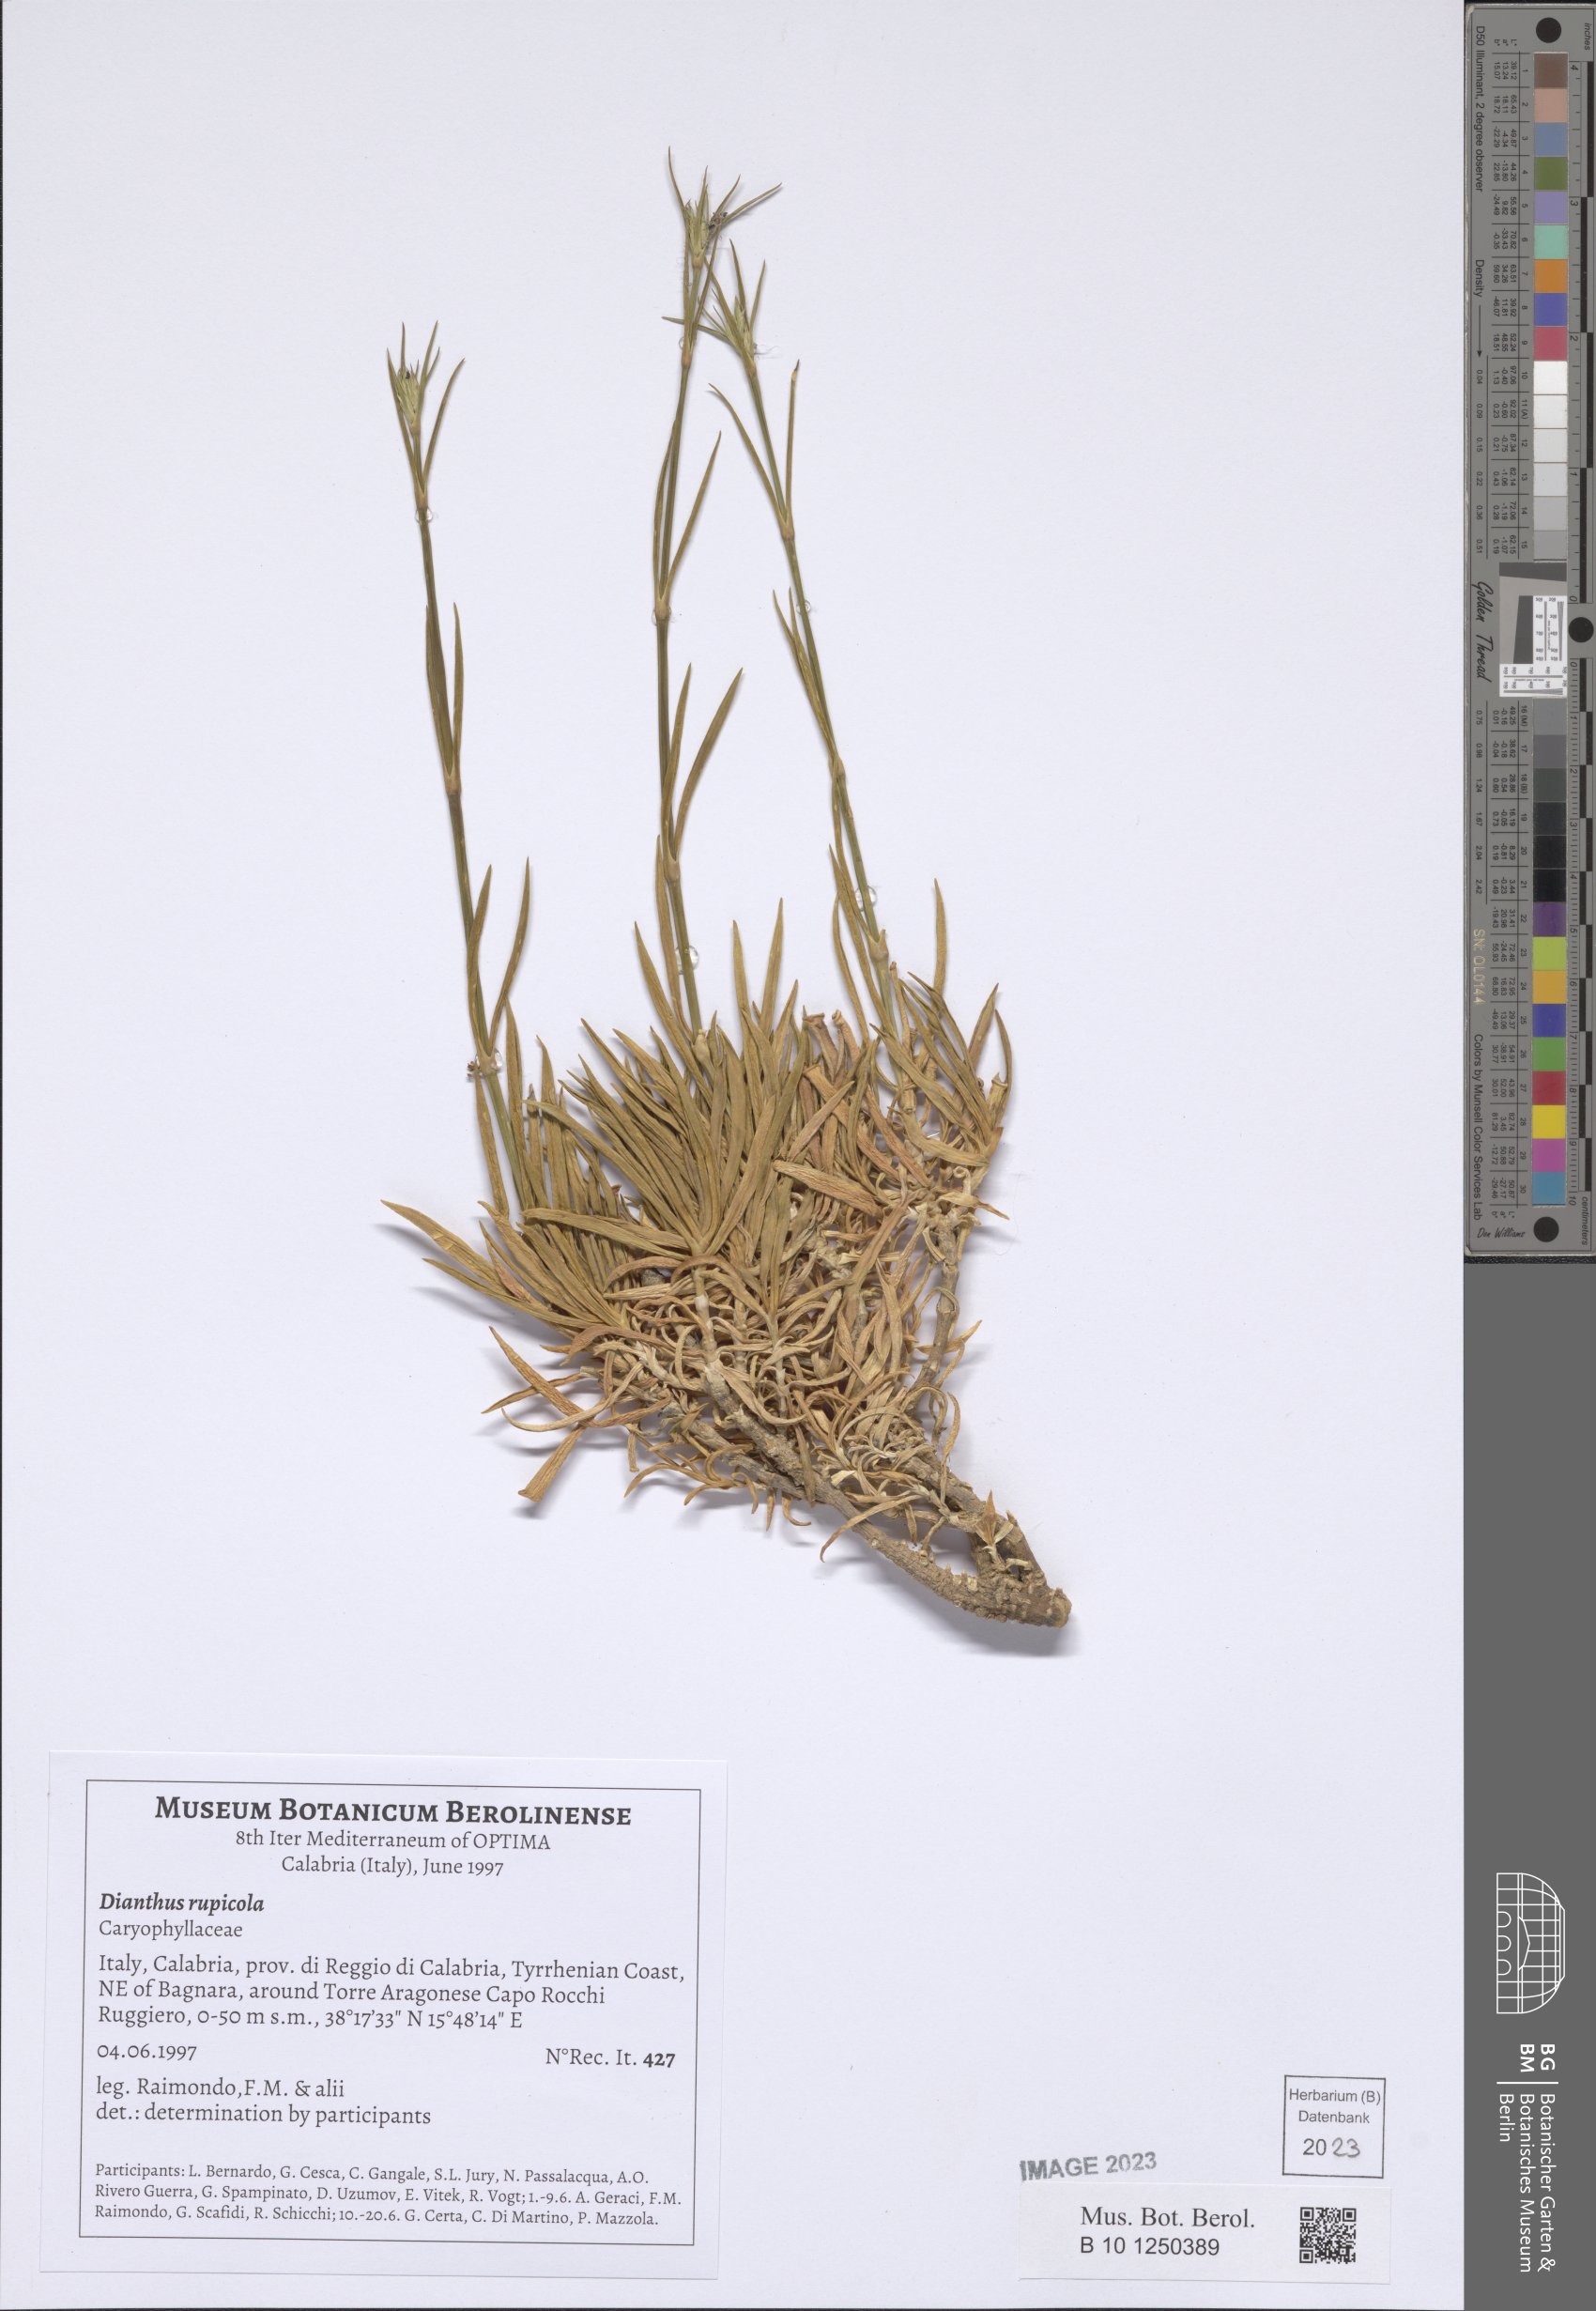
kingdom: Plantae
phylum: Tracheophyta
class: Magnoliopsida
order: Caryophyllales
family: Caryophyllaceae
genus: Dianthus
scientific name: Dianthus rupicola
